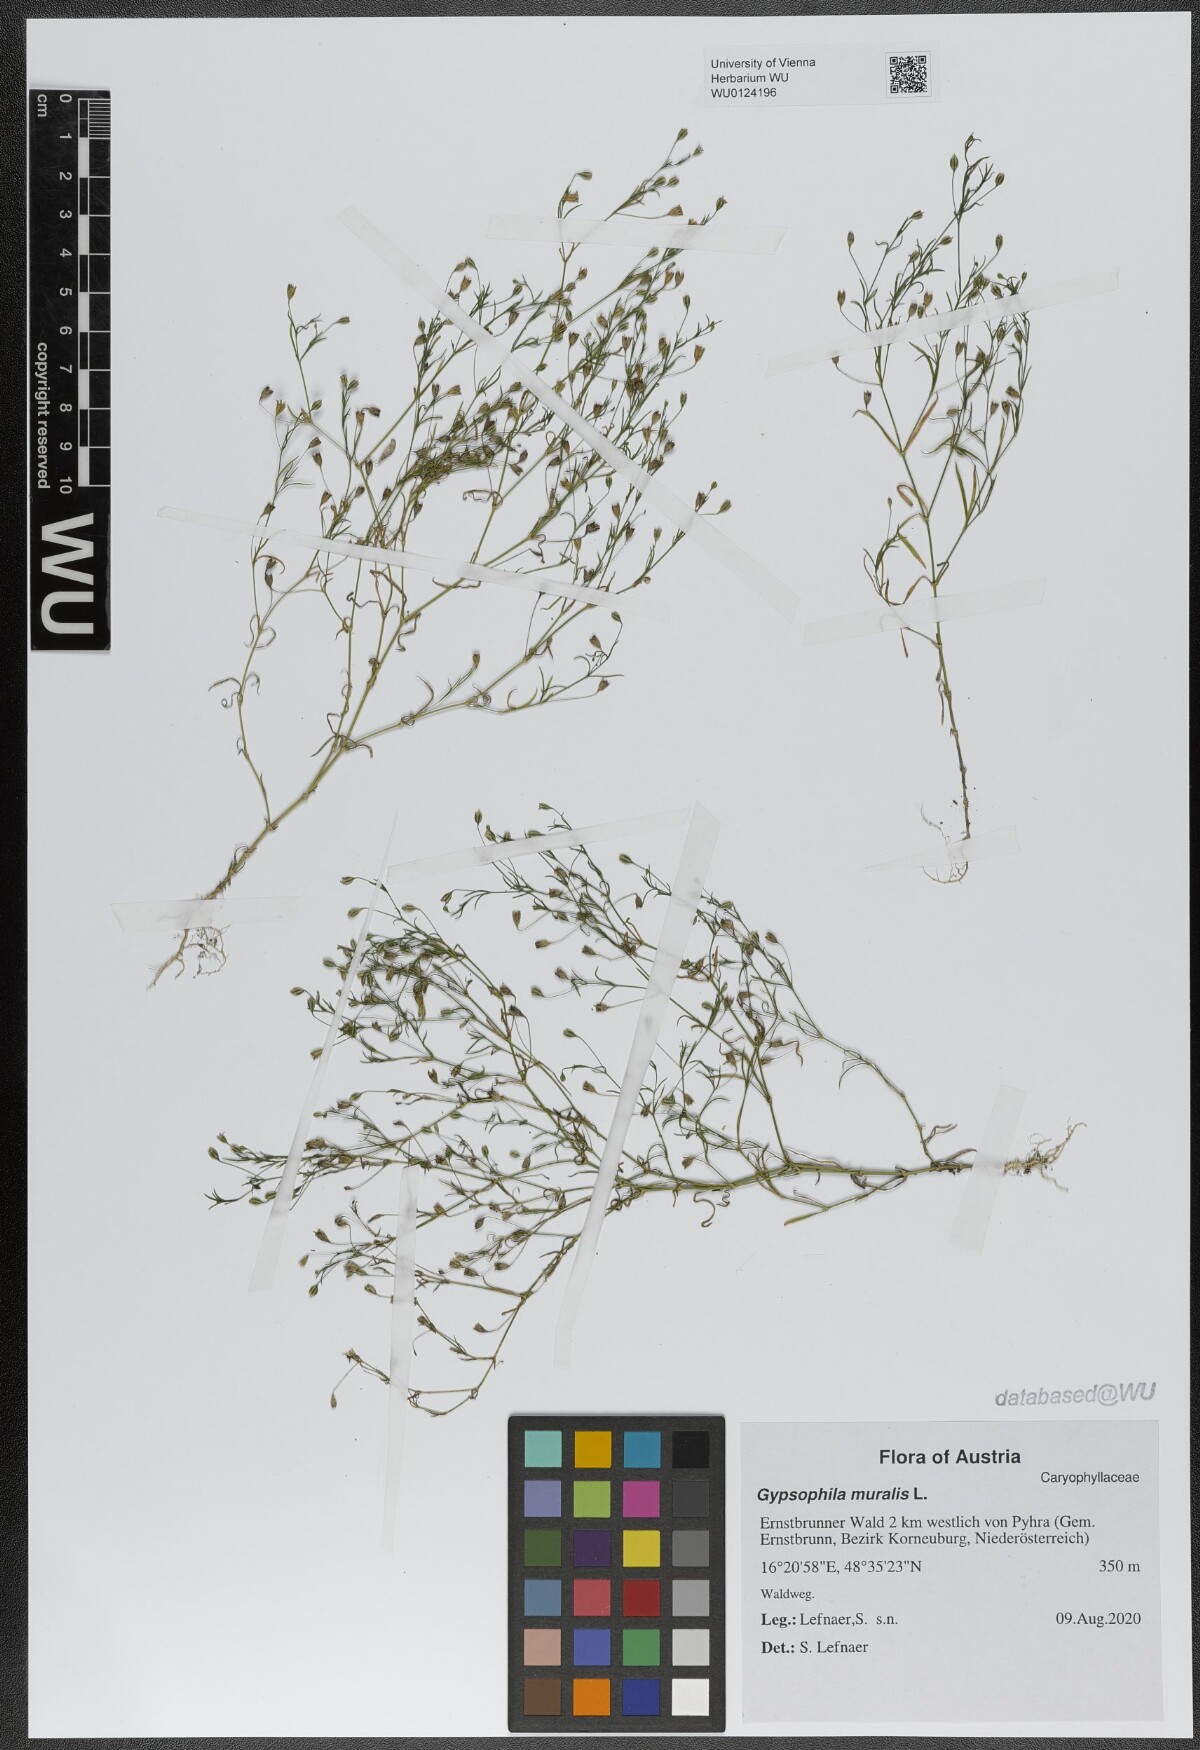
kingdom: Plantae
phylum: Tracheophyta
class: Magnoliopsida
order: Caryophyllales
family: Caryophyllaceae
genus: Psammophiliella
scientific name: Psammophiliella muralis
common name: Cushion baby's-breath
